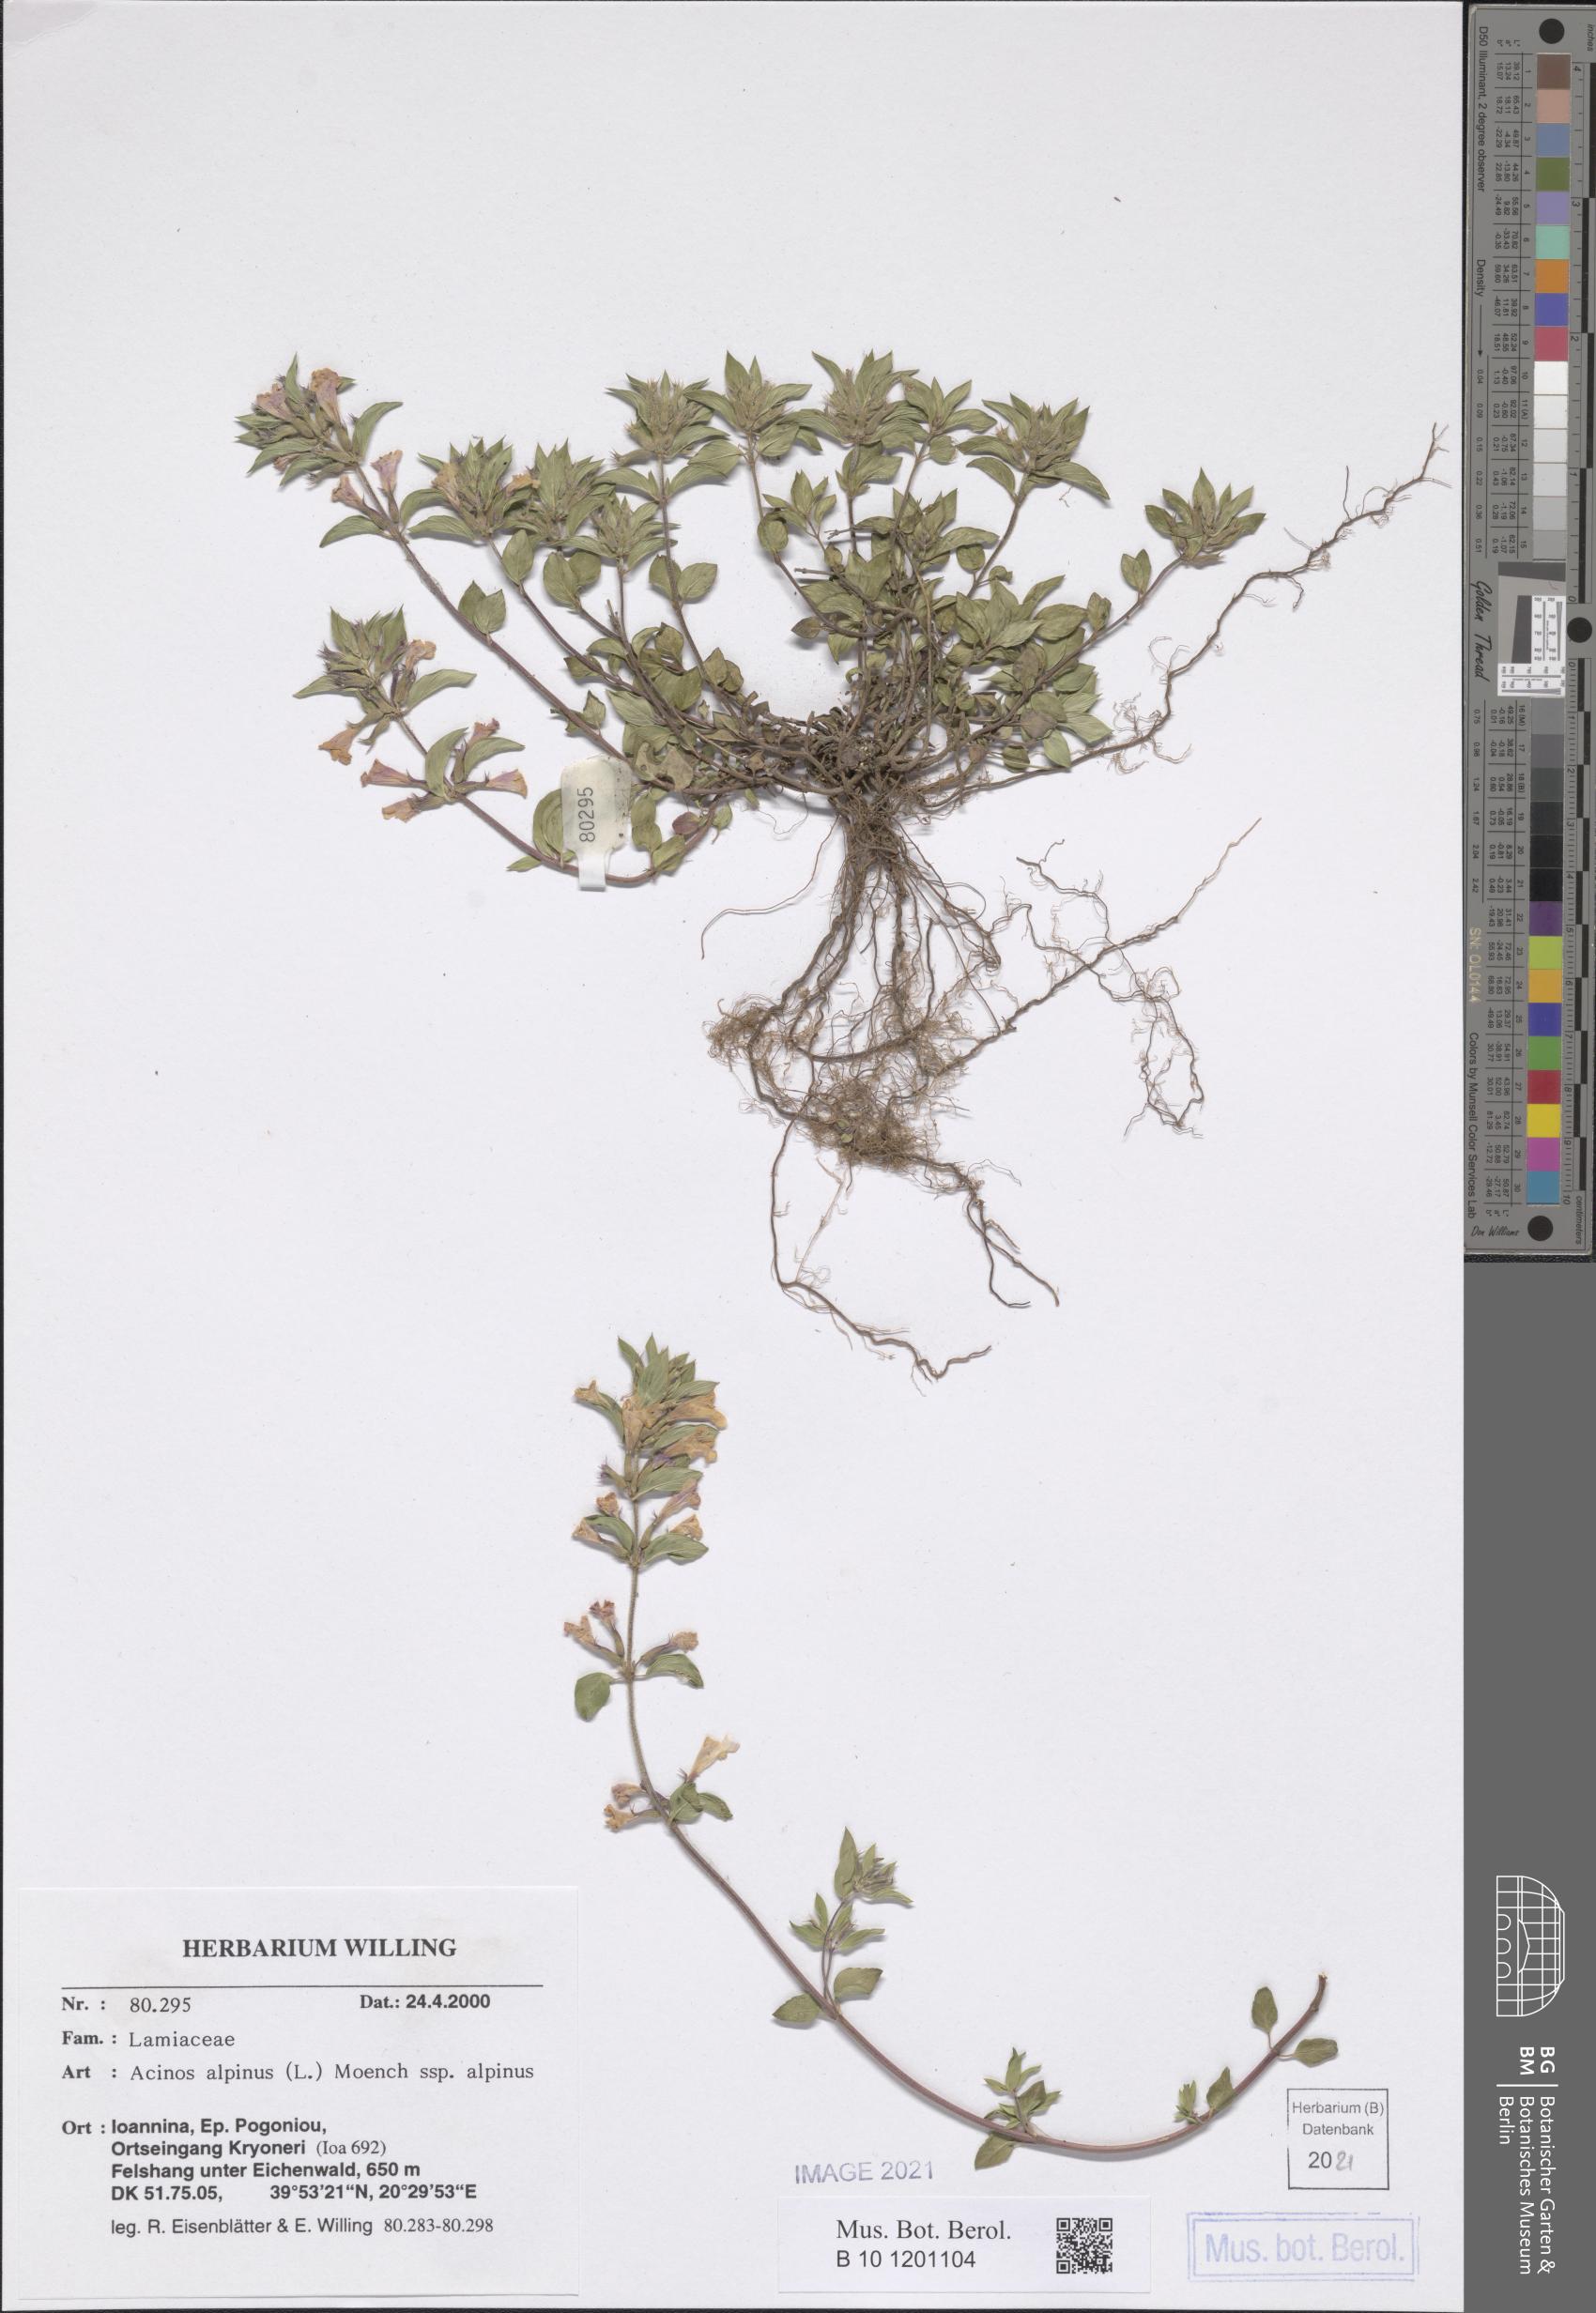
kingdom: Plantae
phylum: Tracheophyta
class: Magnoliopsida
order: Lamiales
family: Lamiaceae
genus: Clinopodium
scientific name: Clinopodium alpinum
